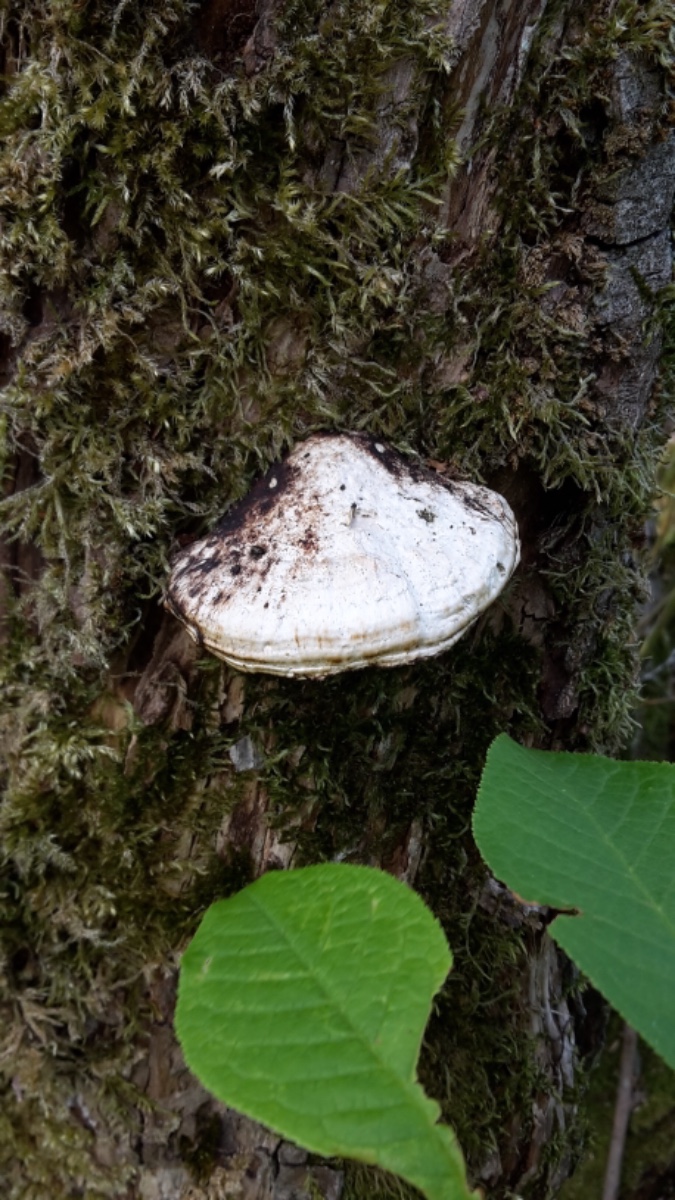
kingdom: Fungi
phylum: Basidiomycota
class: Agaricomycetes
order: Polyporales
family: Polyporaceae
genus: Daedaleopsis
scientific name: Daedaleopsis confragosa
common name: rødmende læderporesvamp
